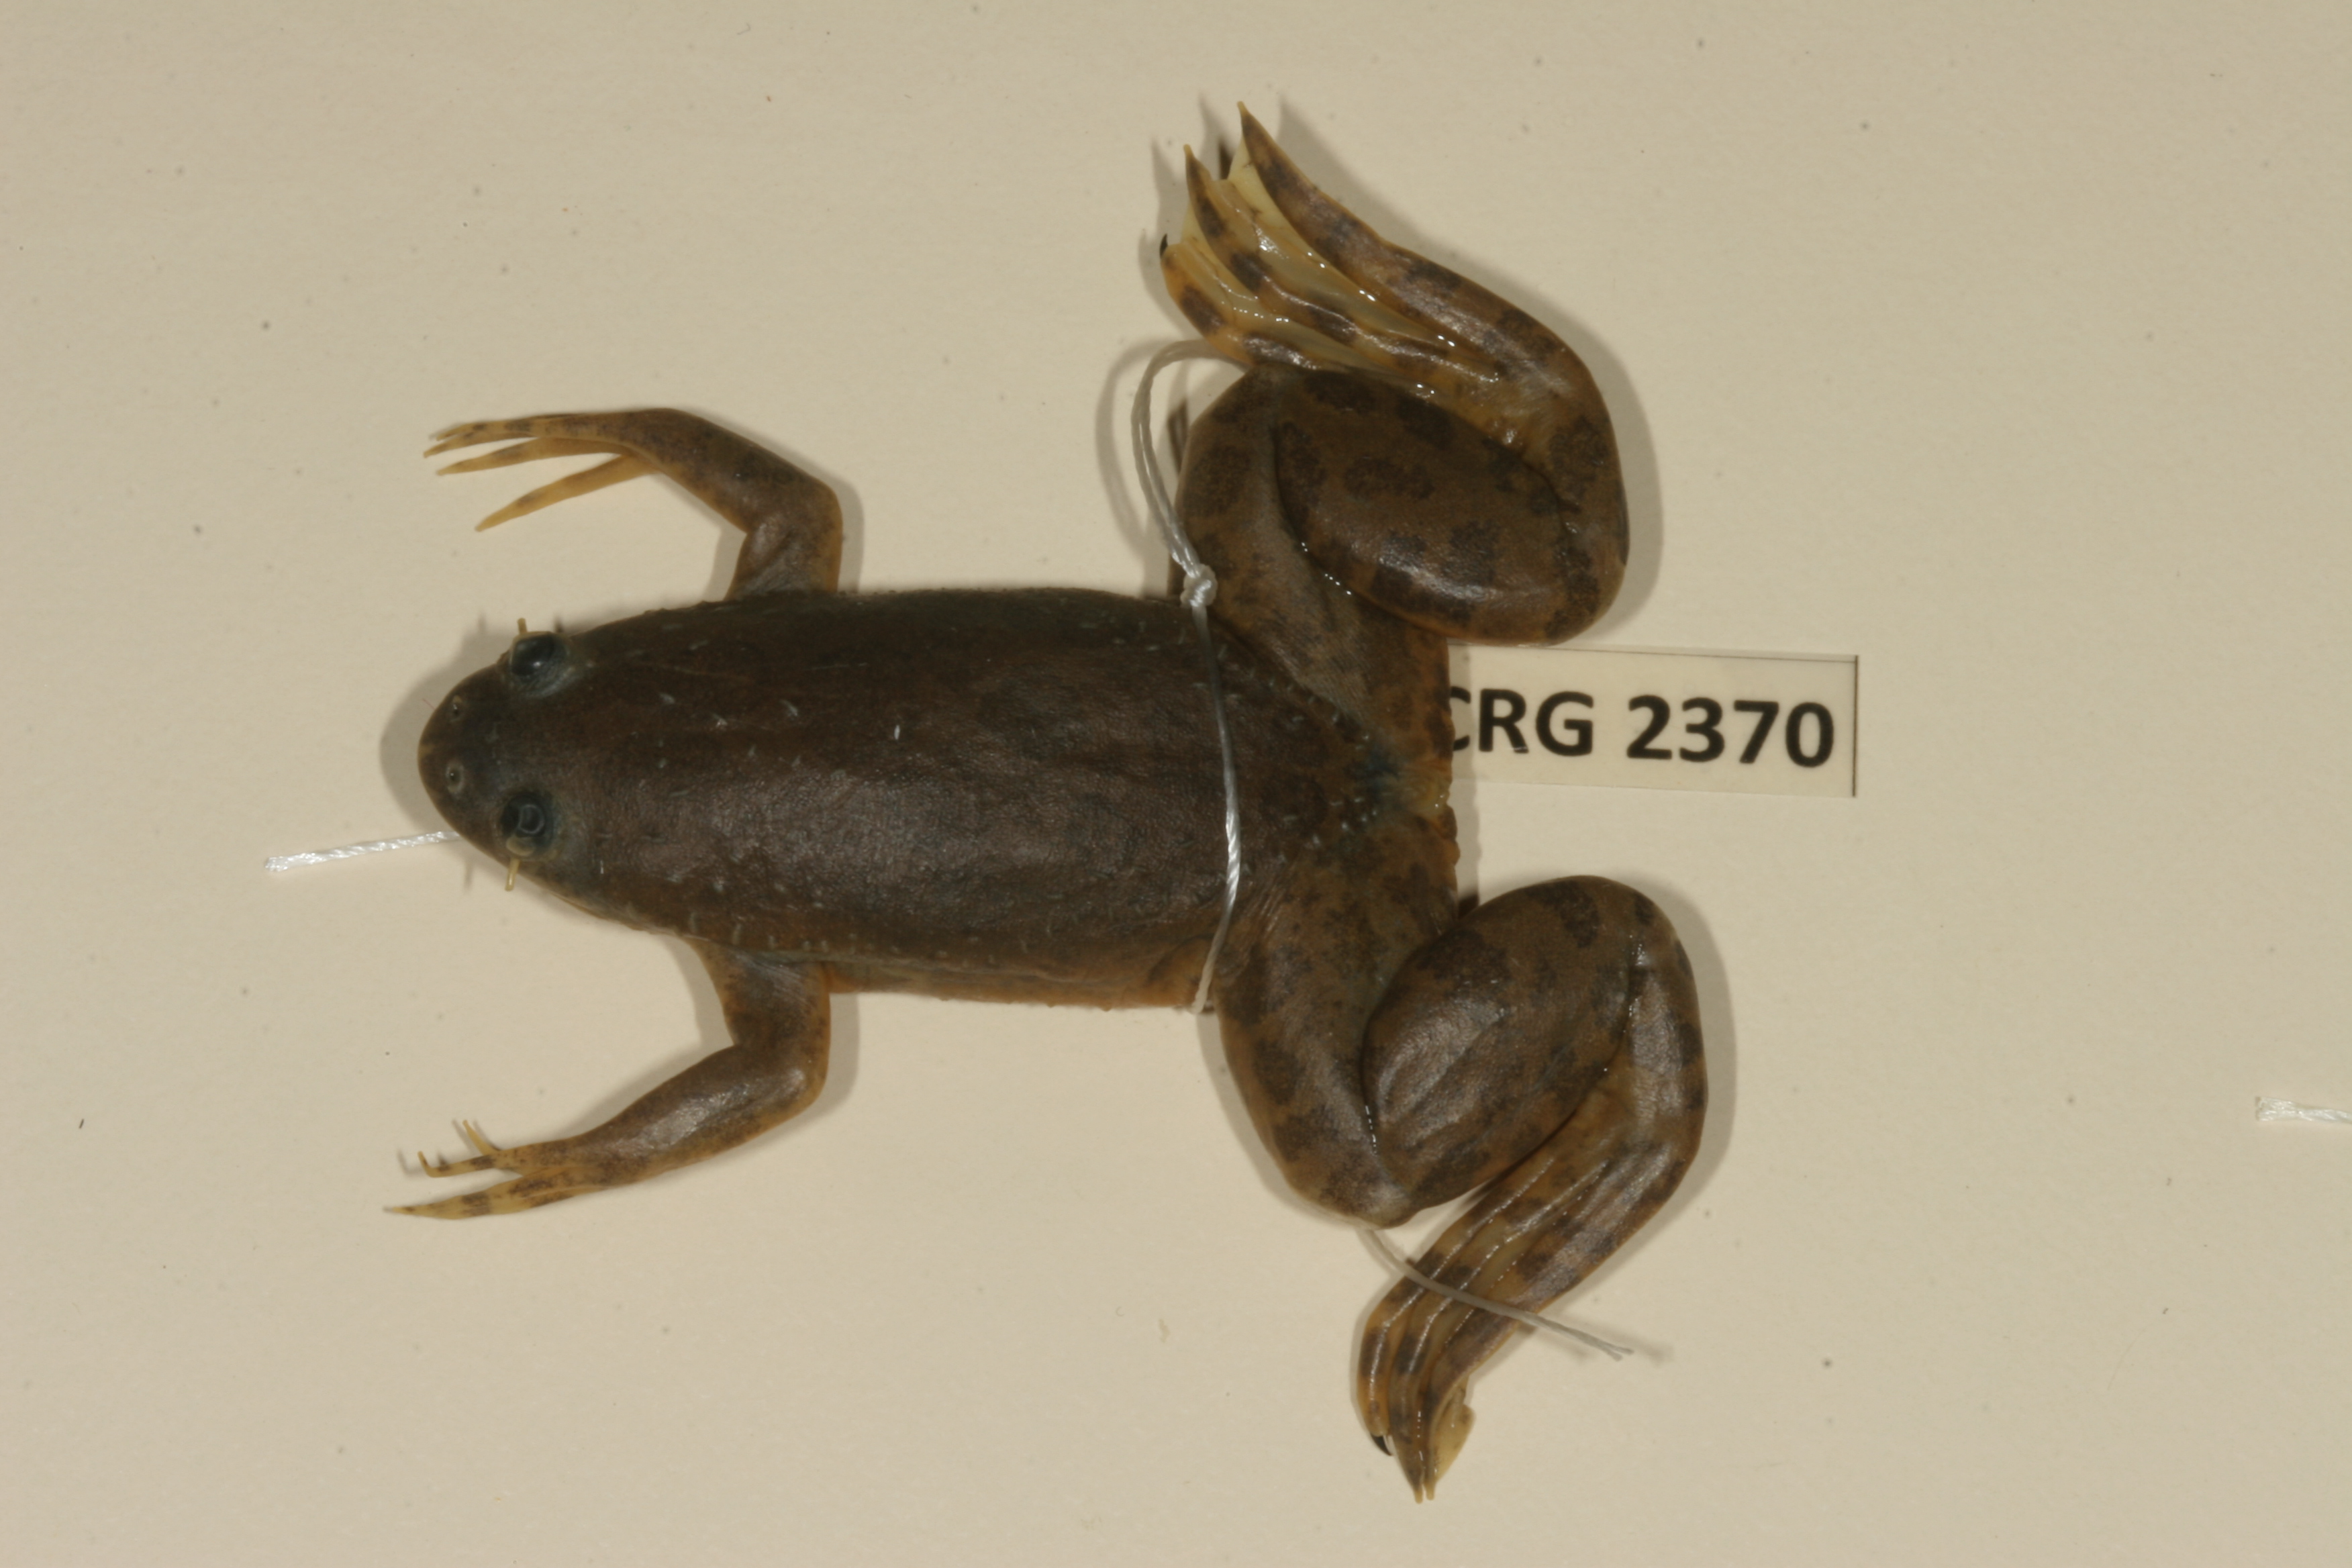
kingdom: Animalia
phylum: Chordata
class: Amphibia
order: Anura
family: Pipidae
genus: Xenopus
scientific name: Xenopus muelleri
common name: Muller's clawed frog
